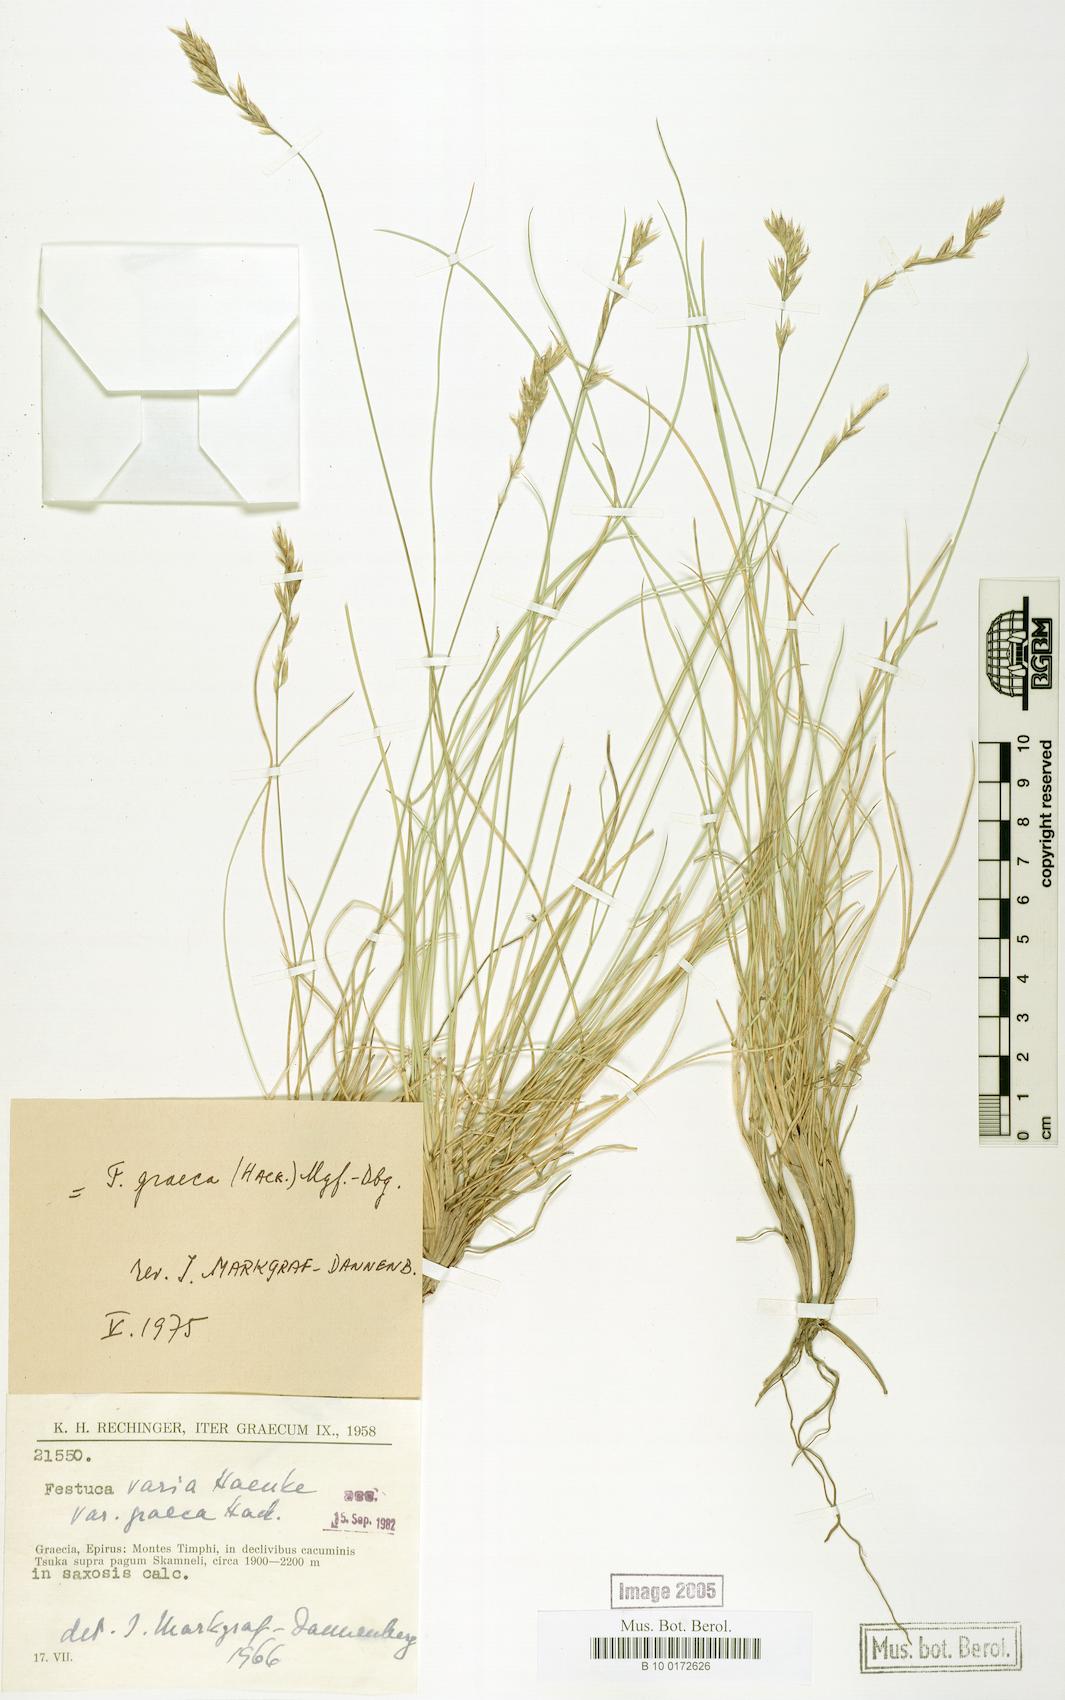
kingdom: Plantae
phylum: Tracheophyta
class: Liliopsida
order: Poales
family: Poaceae
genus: Festuca
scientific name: Festuca graeca
